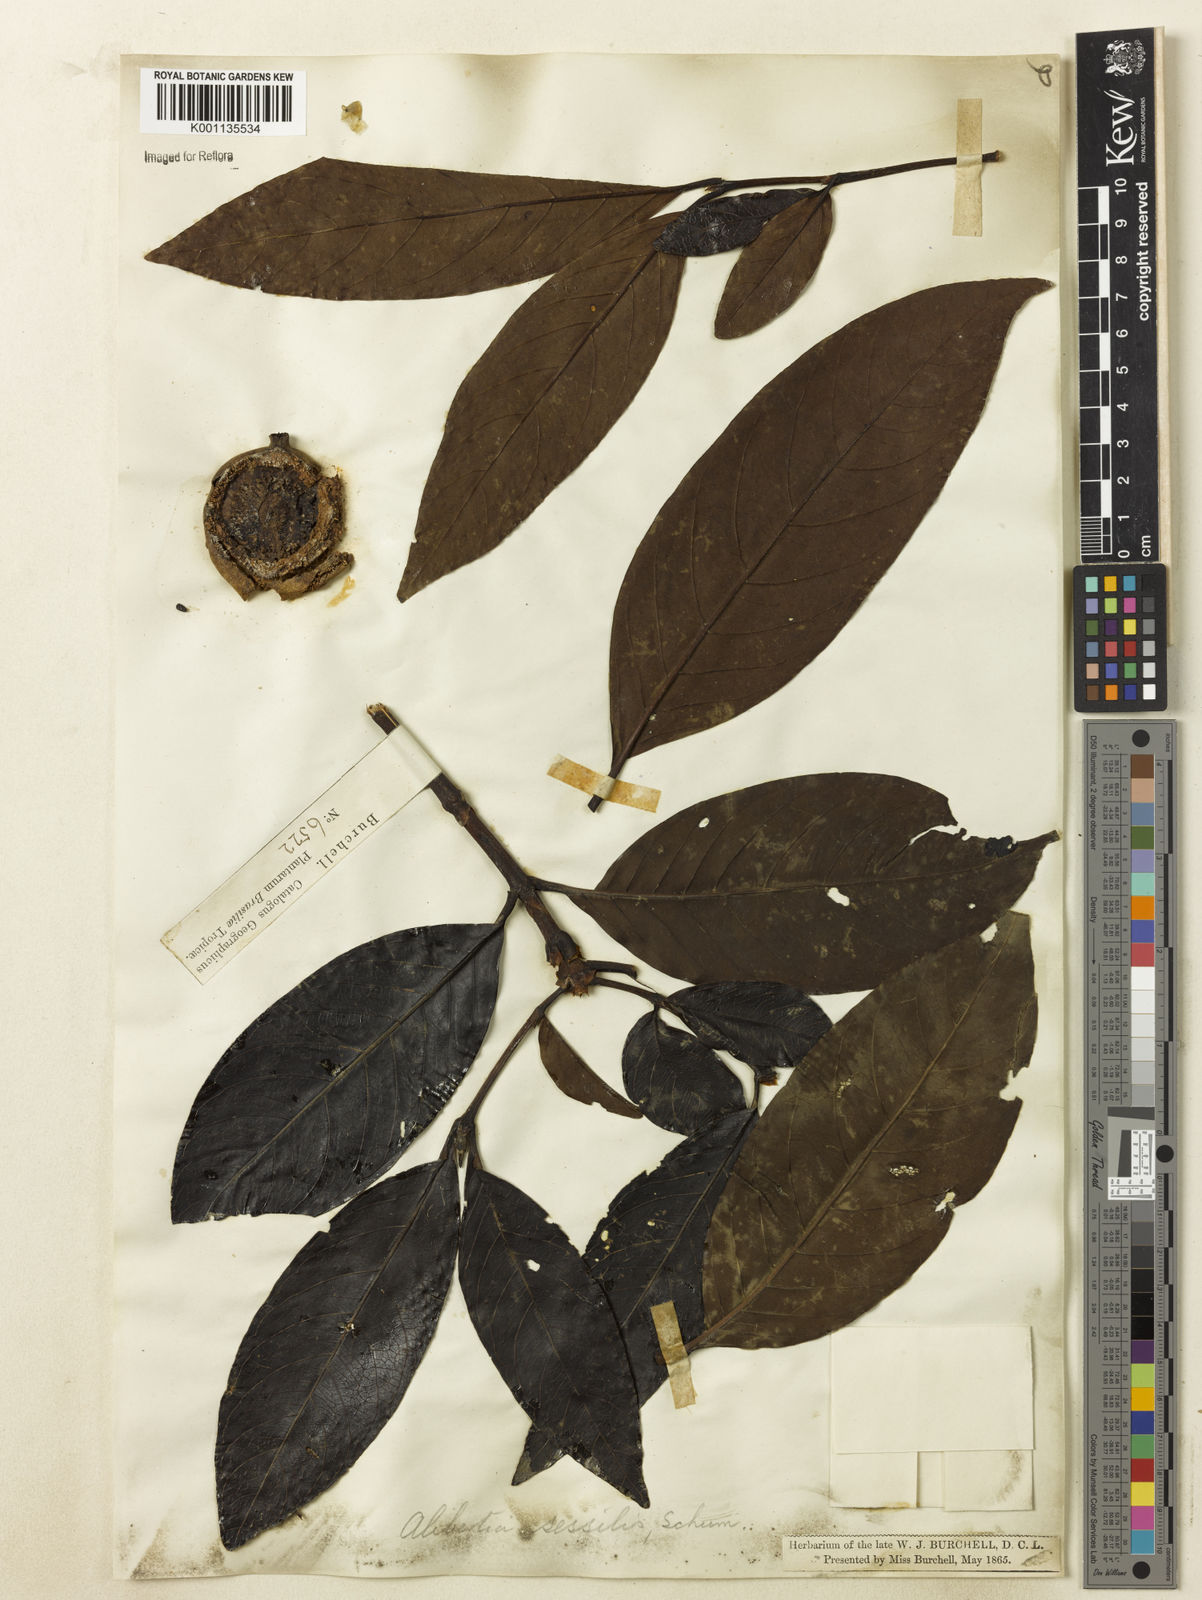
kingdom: Plantae
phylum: Tracheophyta
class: Magnoliopsida
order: Gentianales
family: Rubiaceae
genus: Cordiera
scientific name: Cordiera sessilis
